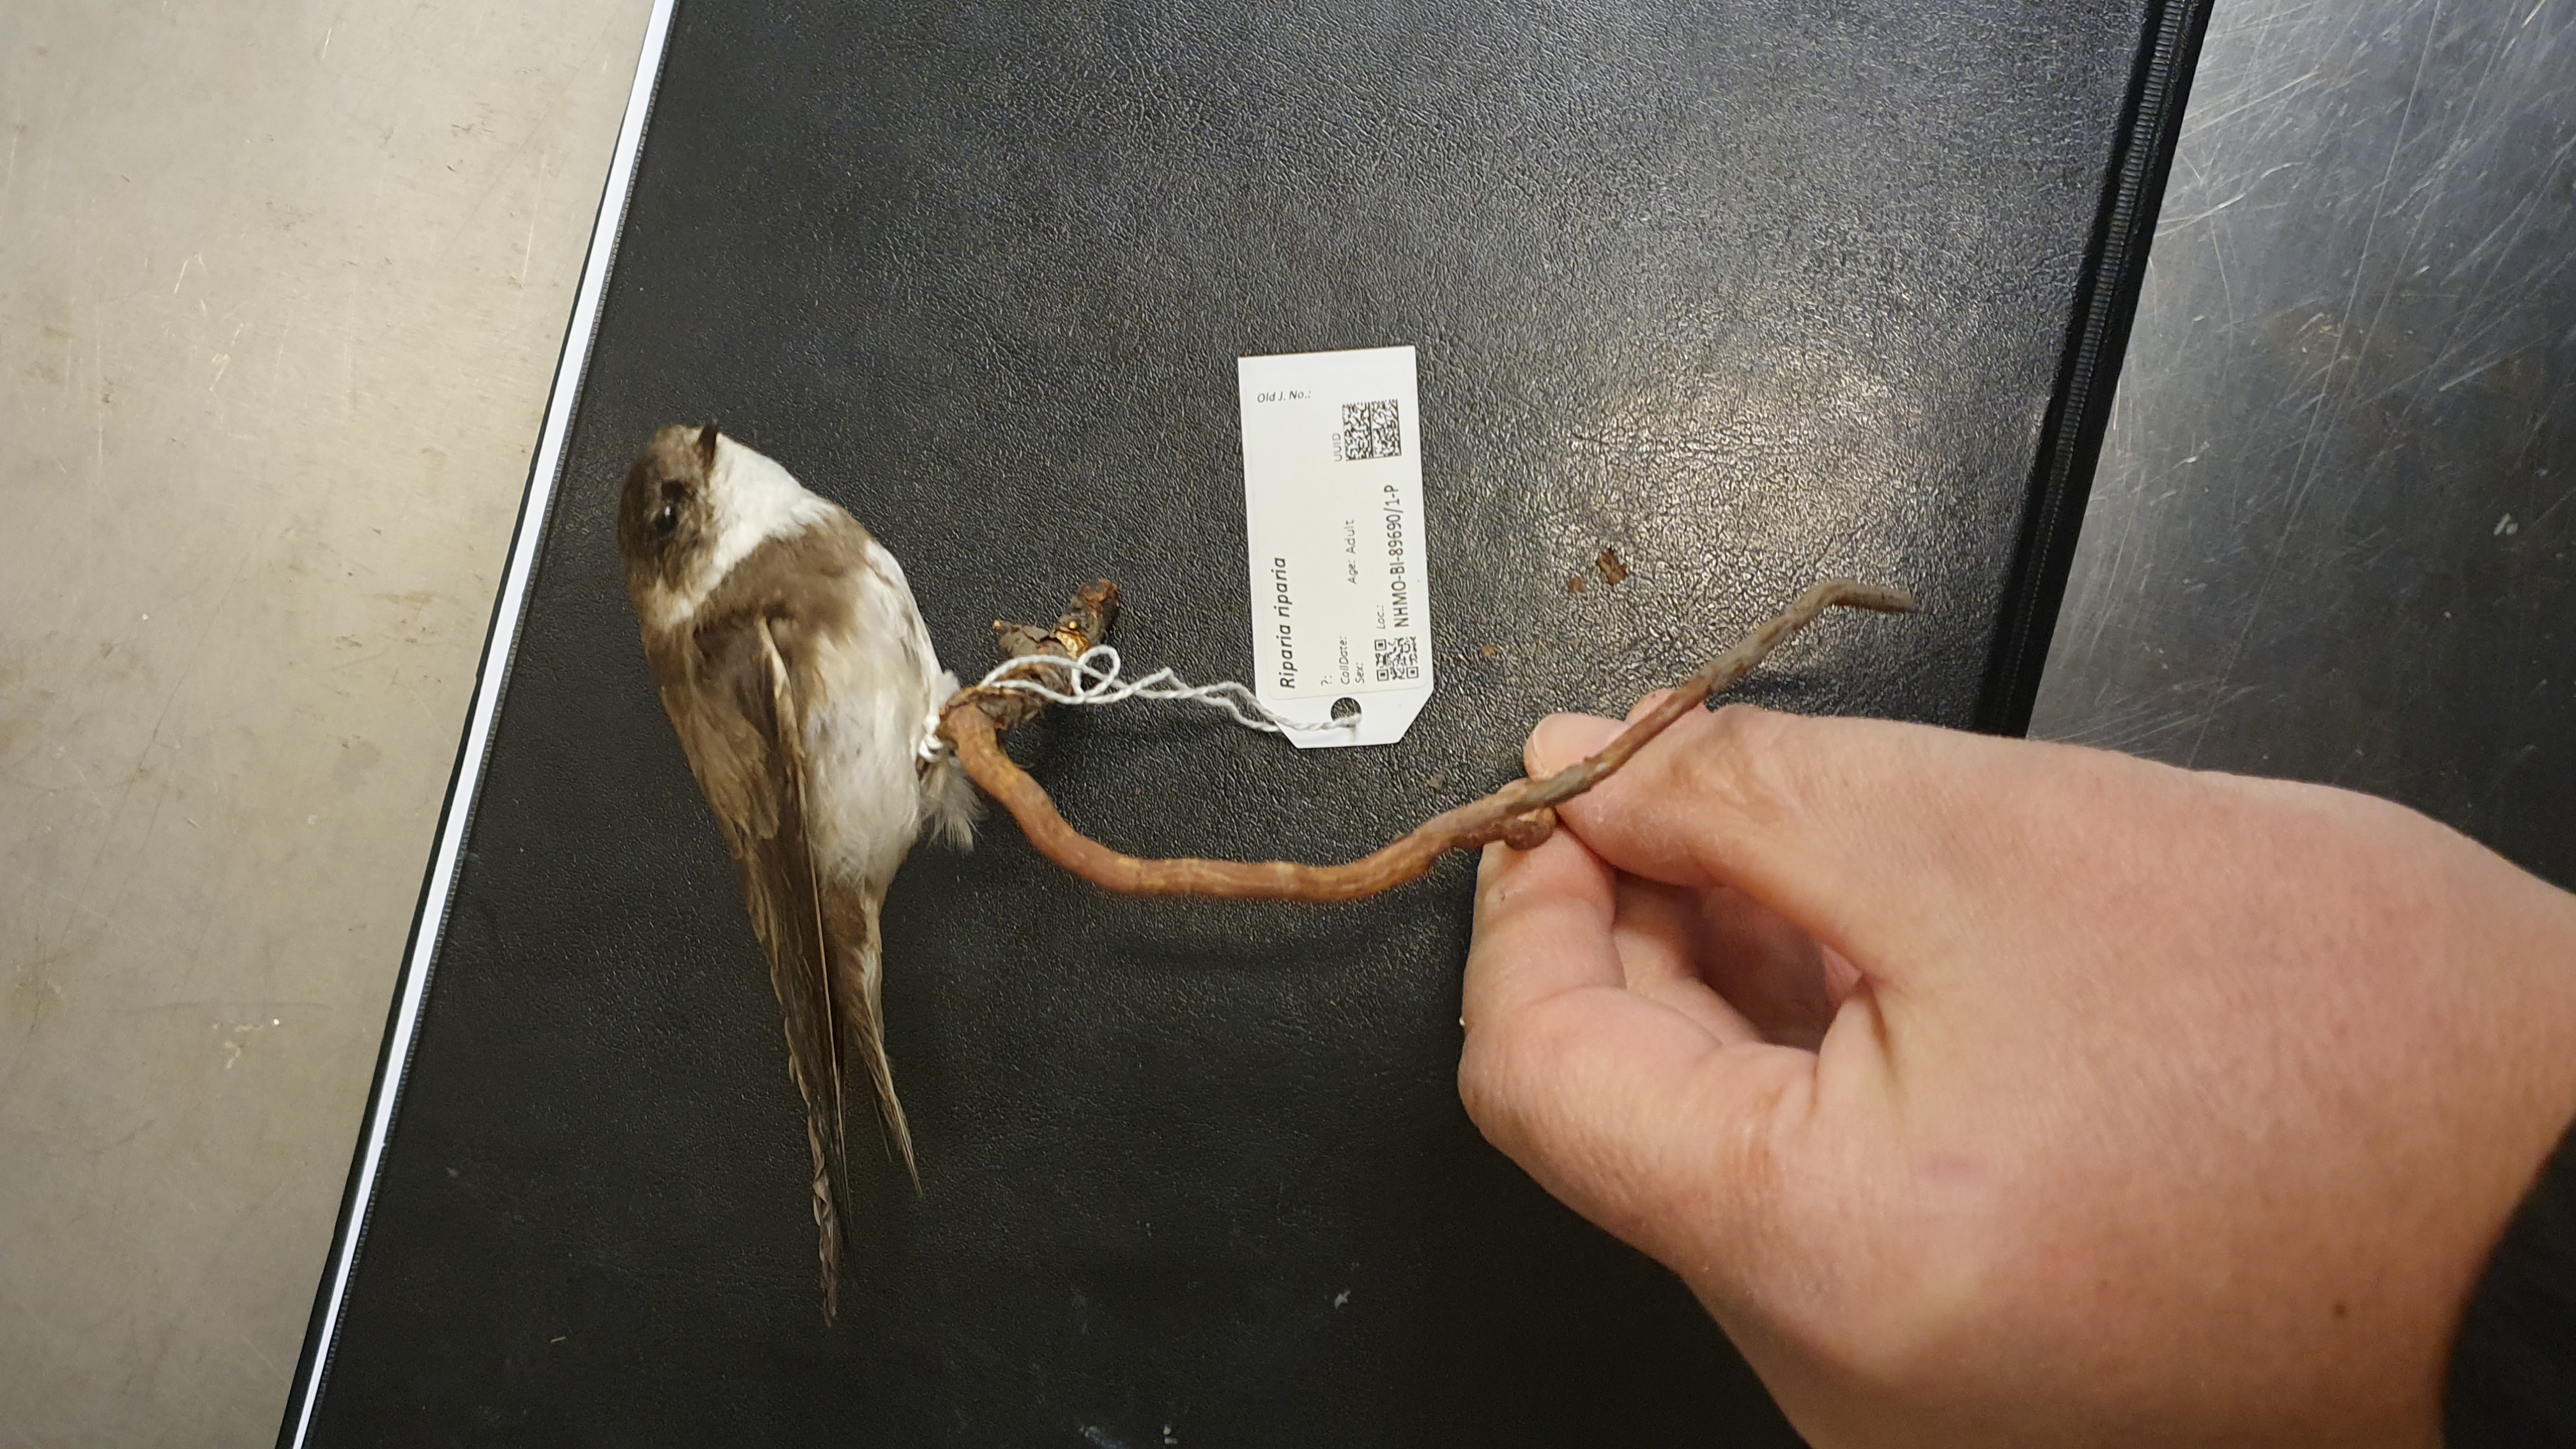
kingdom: Animalia
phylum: Chordata
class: Aves
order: Passeriformes
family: Hirundinidae
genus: Riparia
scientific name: Riparia riparia
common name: Sand martin
